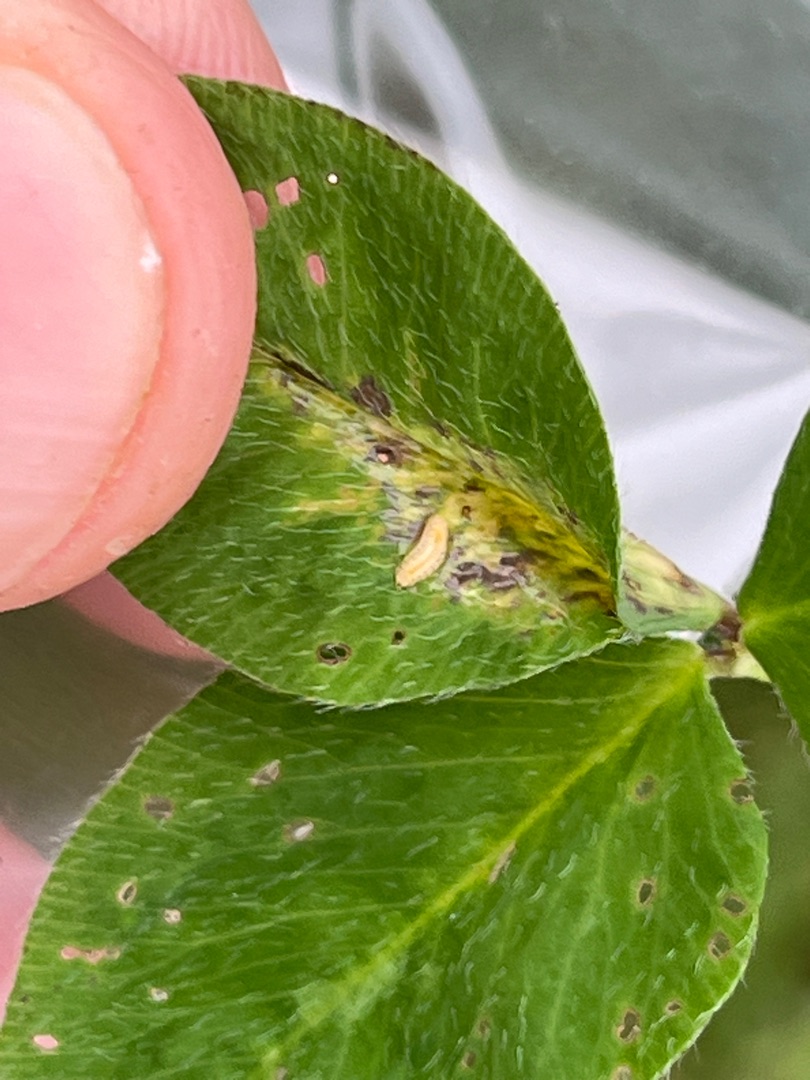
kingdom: Animalia
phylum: Arthropoda
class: Insecta
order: Diptera
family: Cecidomyiidae
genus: Tricholaba
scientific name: Tricholaba trifolii
